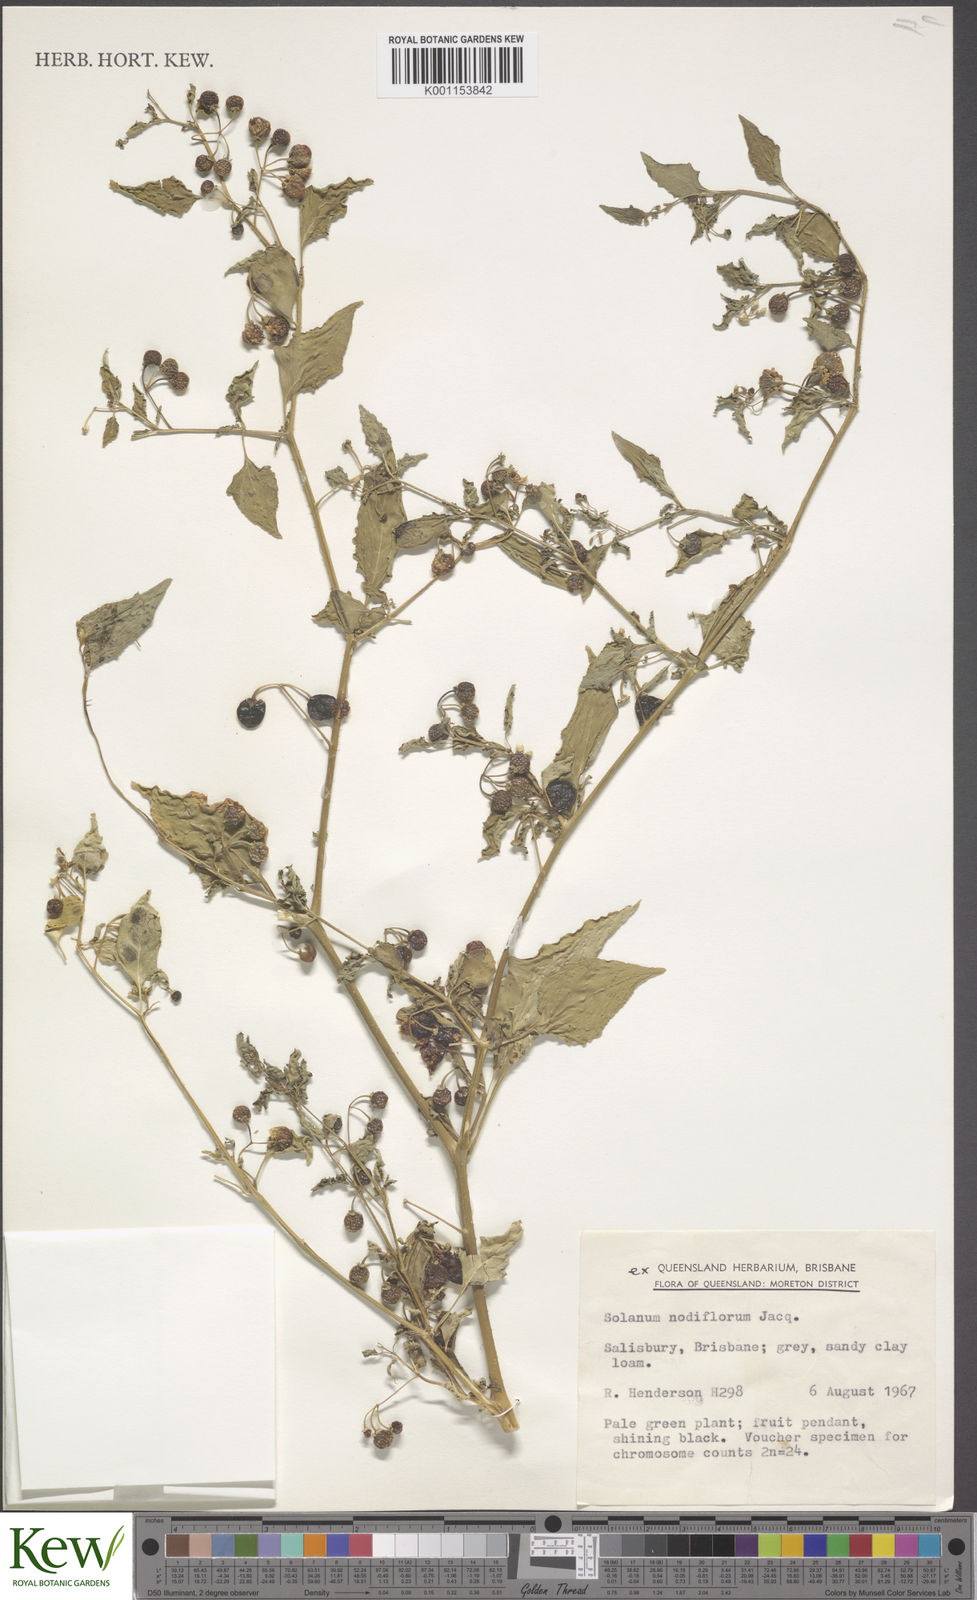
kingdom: Plantae
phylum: Tracheophyta
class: Magnoliopsida
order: Solanales
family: Solanaceae
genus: Solanum
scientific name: Solanum americanum
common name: American black nightshade
